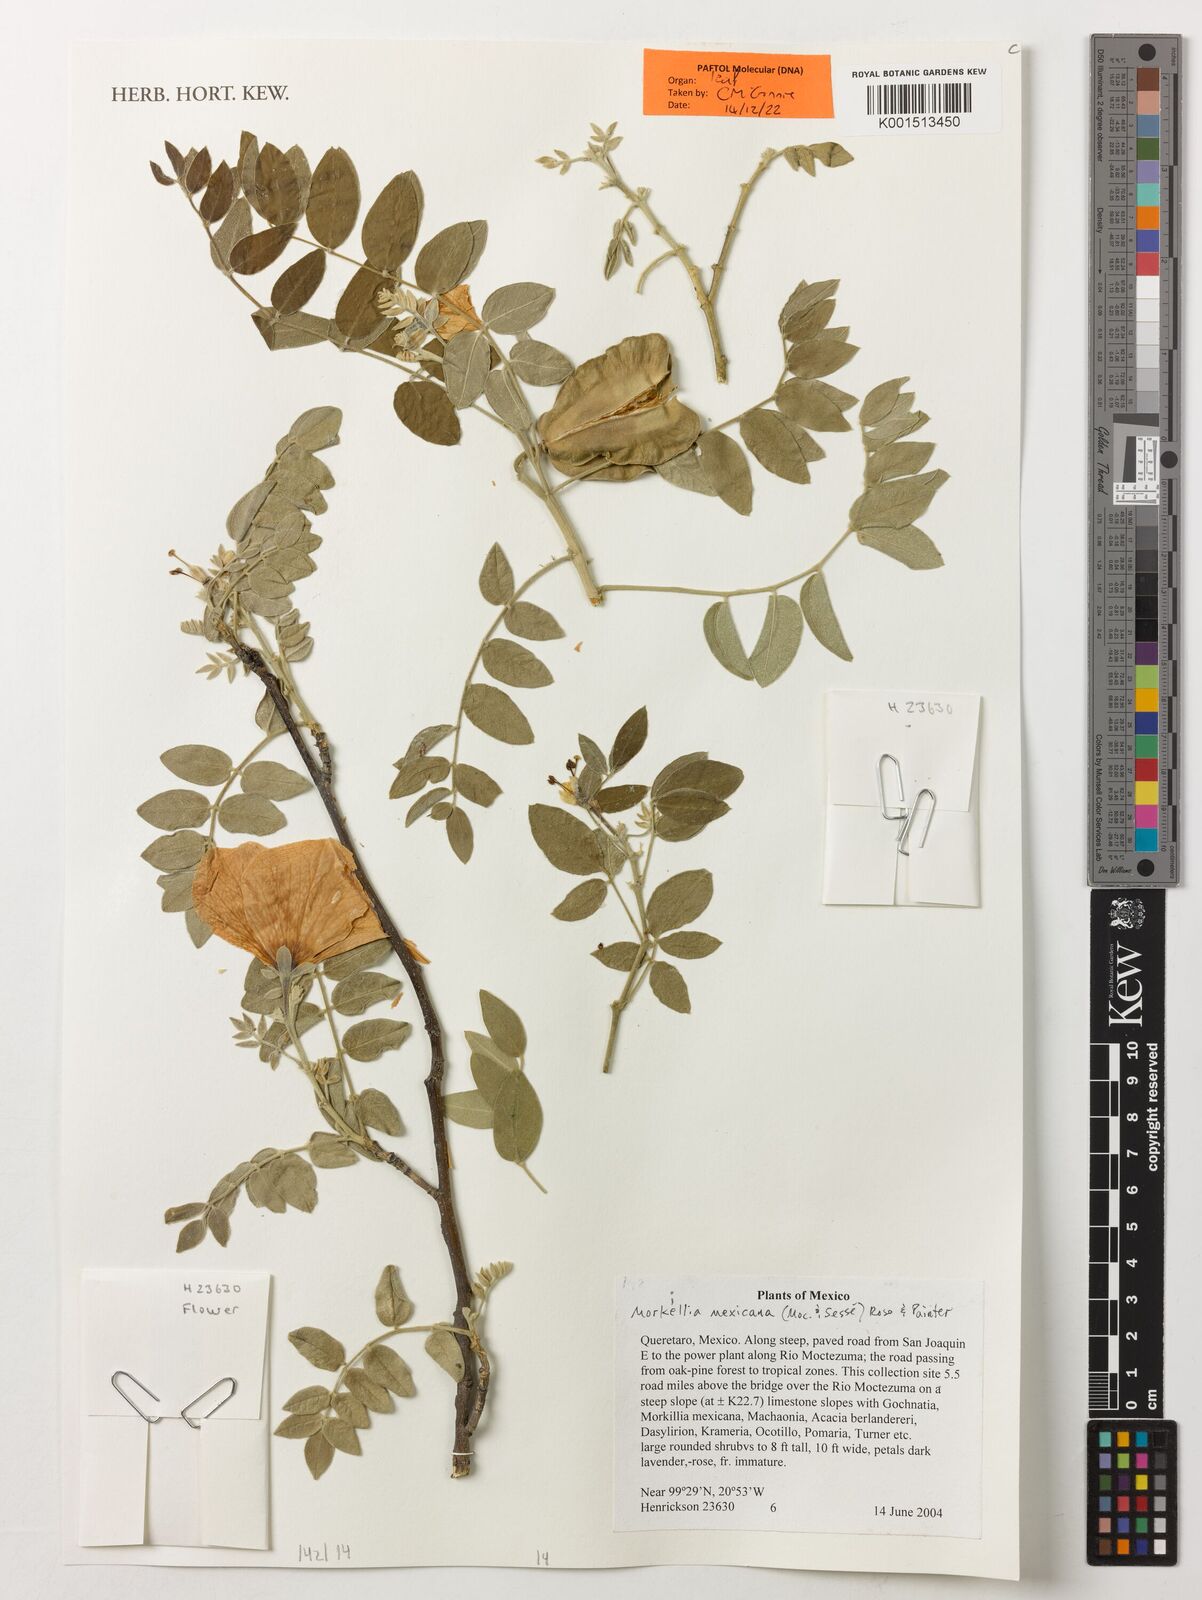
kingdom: Plantae
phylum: Tracheophyta
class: Magnoliopsida
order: Zygophyllales
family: Zygophyllaceae
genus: Morkillia
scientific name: Morkillia mexicana
